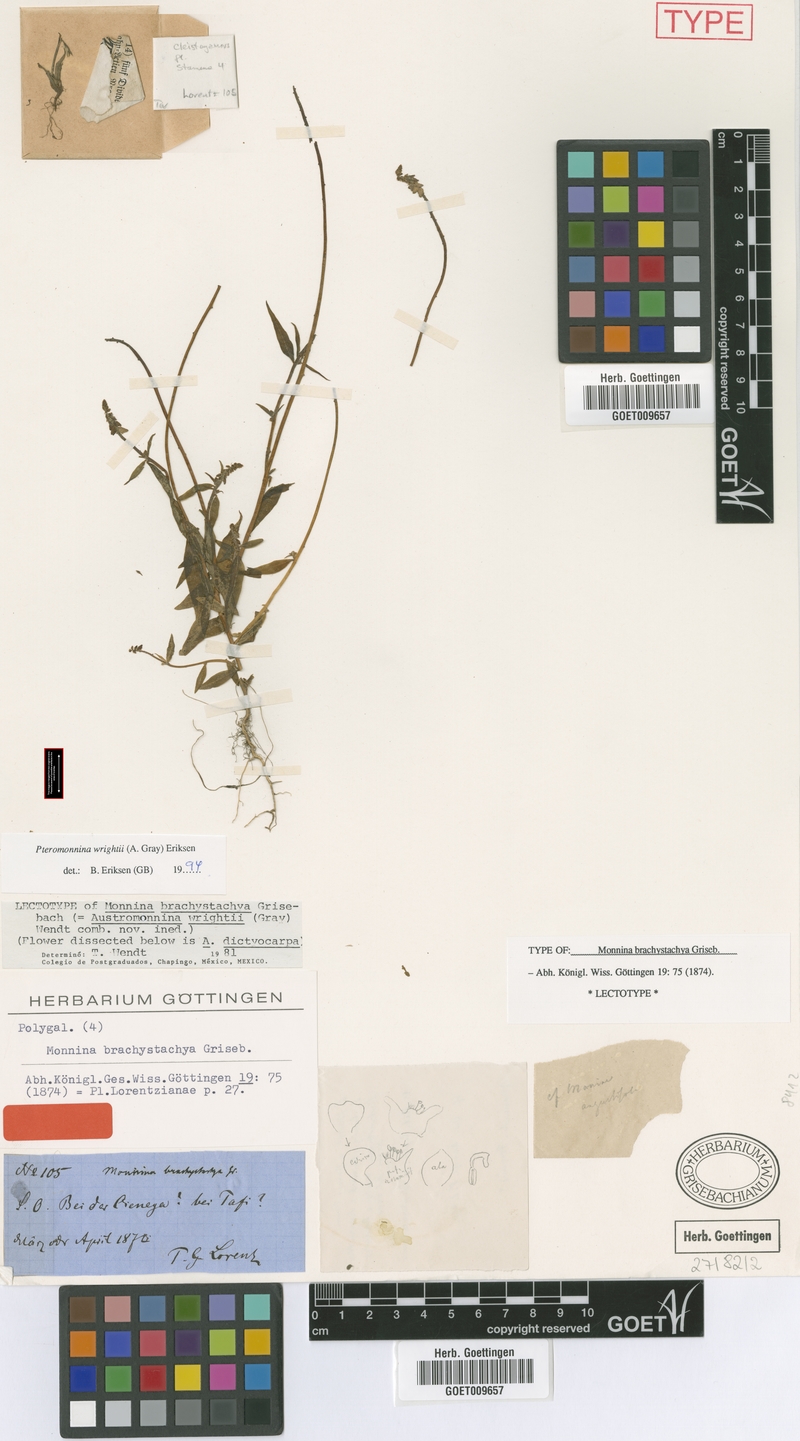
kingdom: Plantae
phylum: Tracheophyta
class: Magnoliopsida
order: Fabales
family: Polygalaceae
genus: Monnina
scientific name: Monnina wrightii
